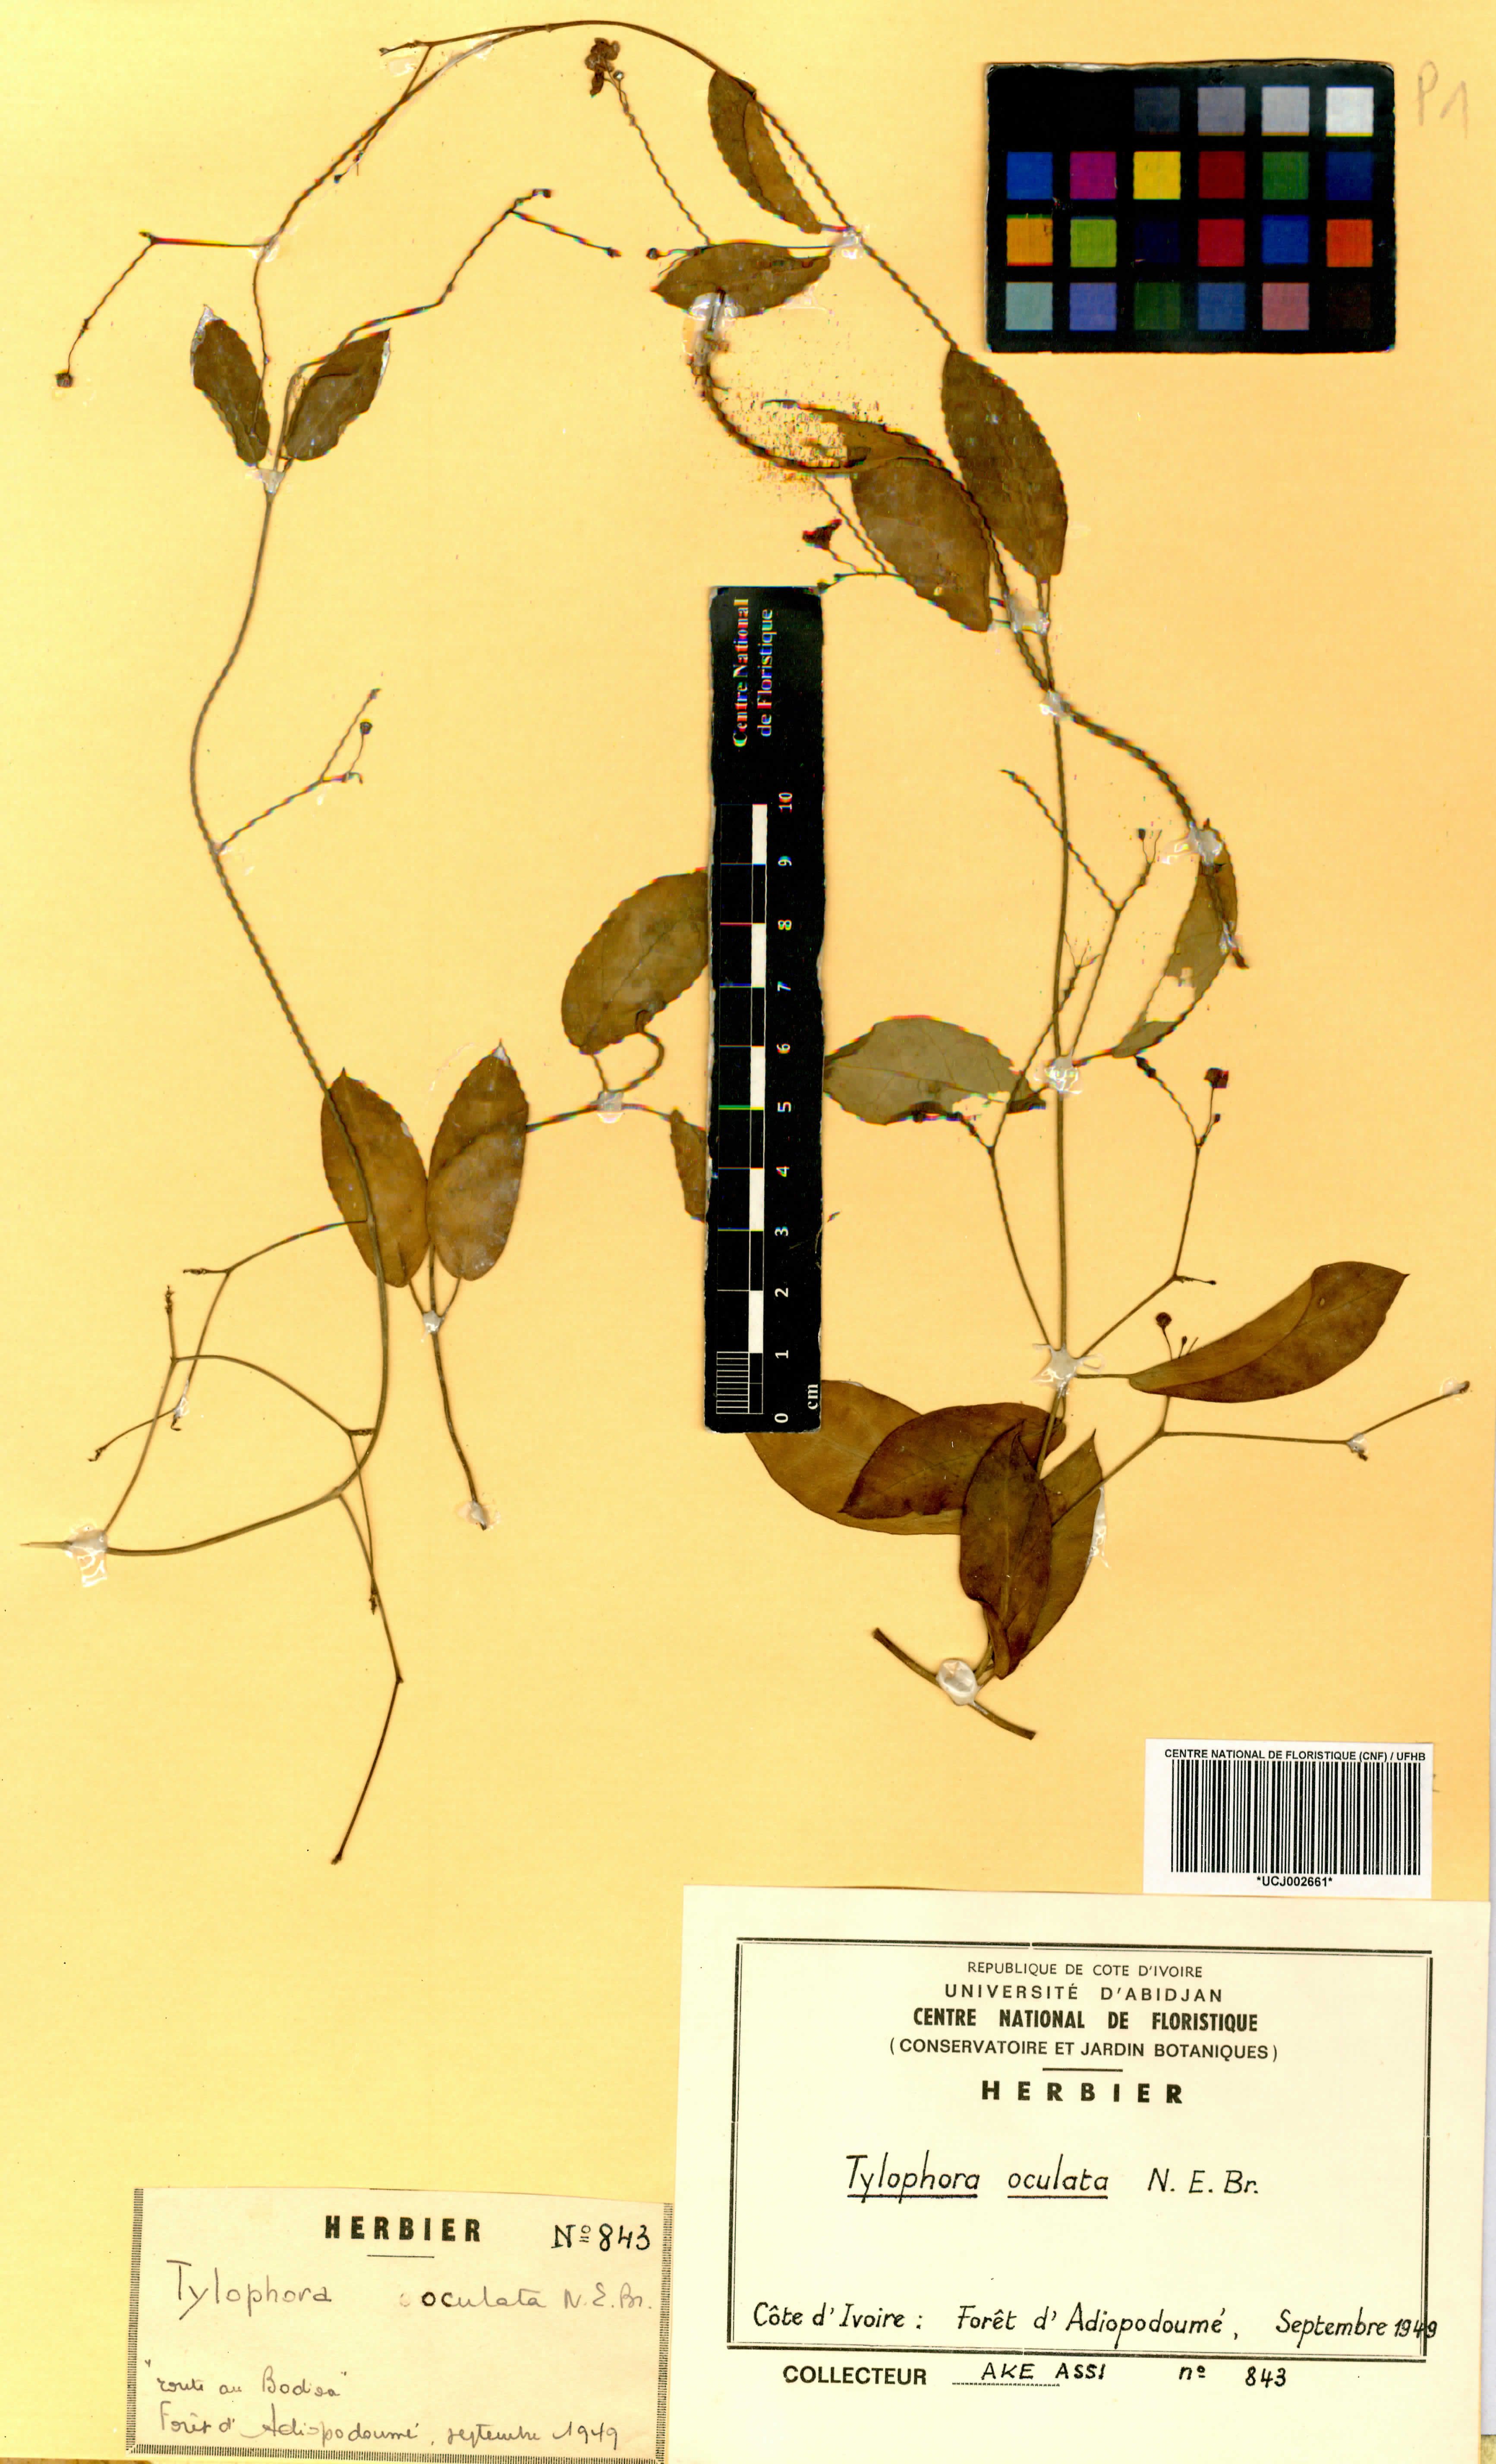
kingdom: Plantae
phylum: Tracheophyta
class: Magnoliopsida
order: Gentianales
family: Apocynaceae
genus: Vincetoxicum
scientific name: Vincetoxicum oculatum
